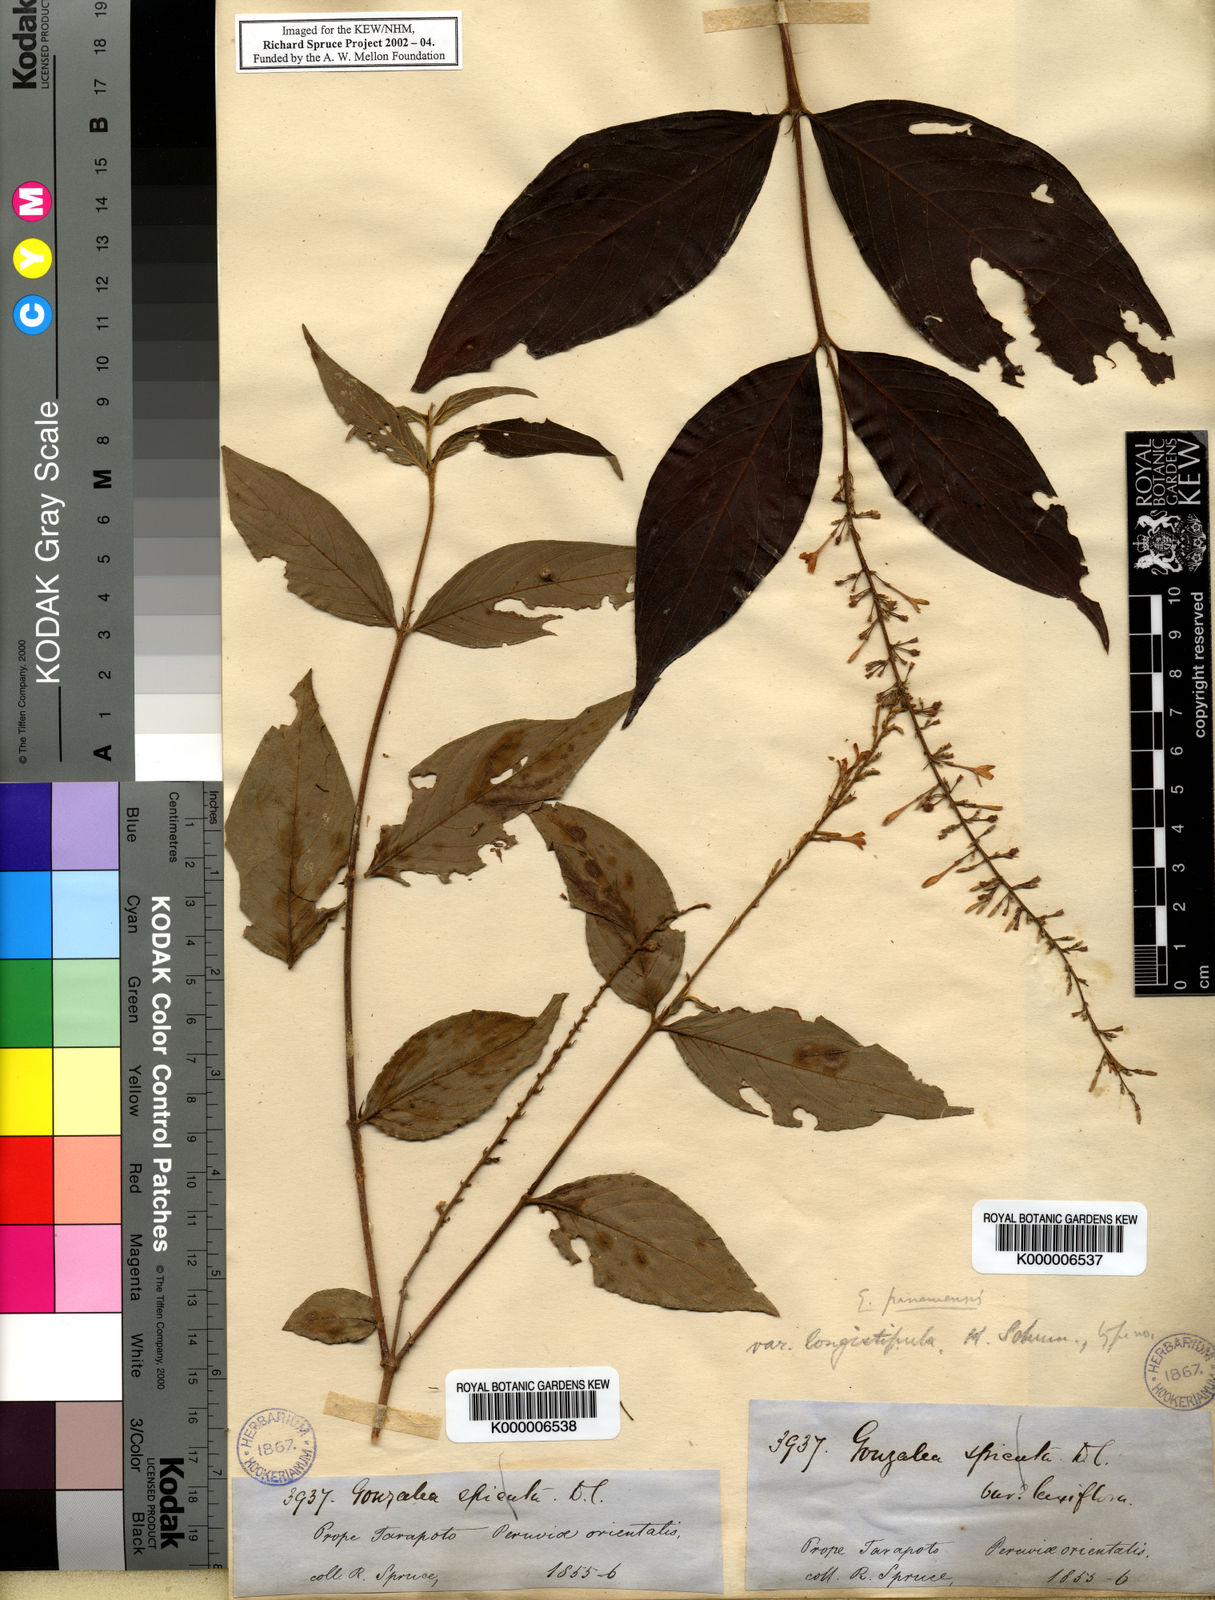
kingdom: Plantae
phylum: Tracheophyta
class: Magnoliopsida
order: Gentianales
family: Rubiaceae
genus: Gonzalagunia
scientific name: Gonzalagunia cornifolia
